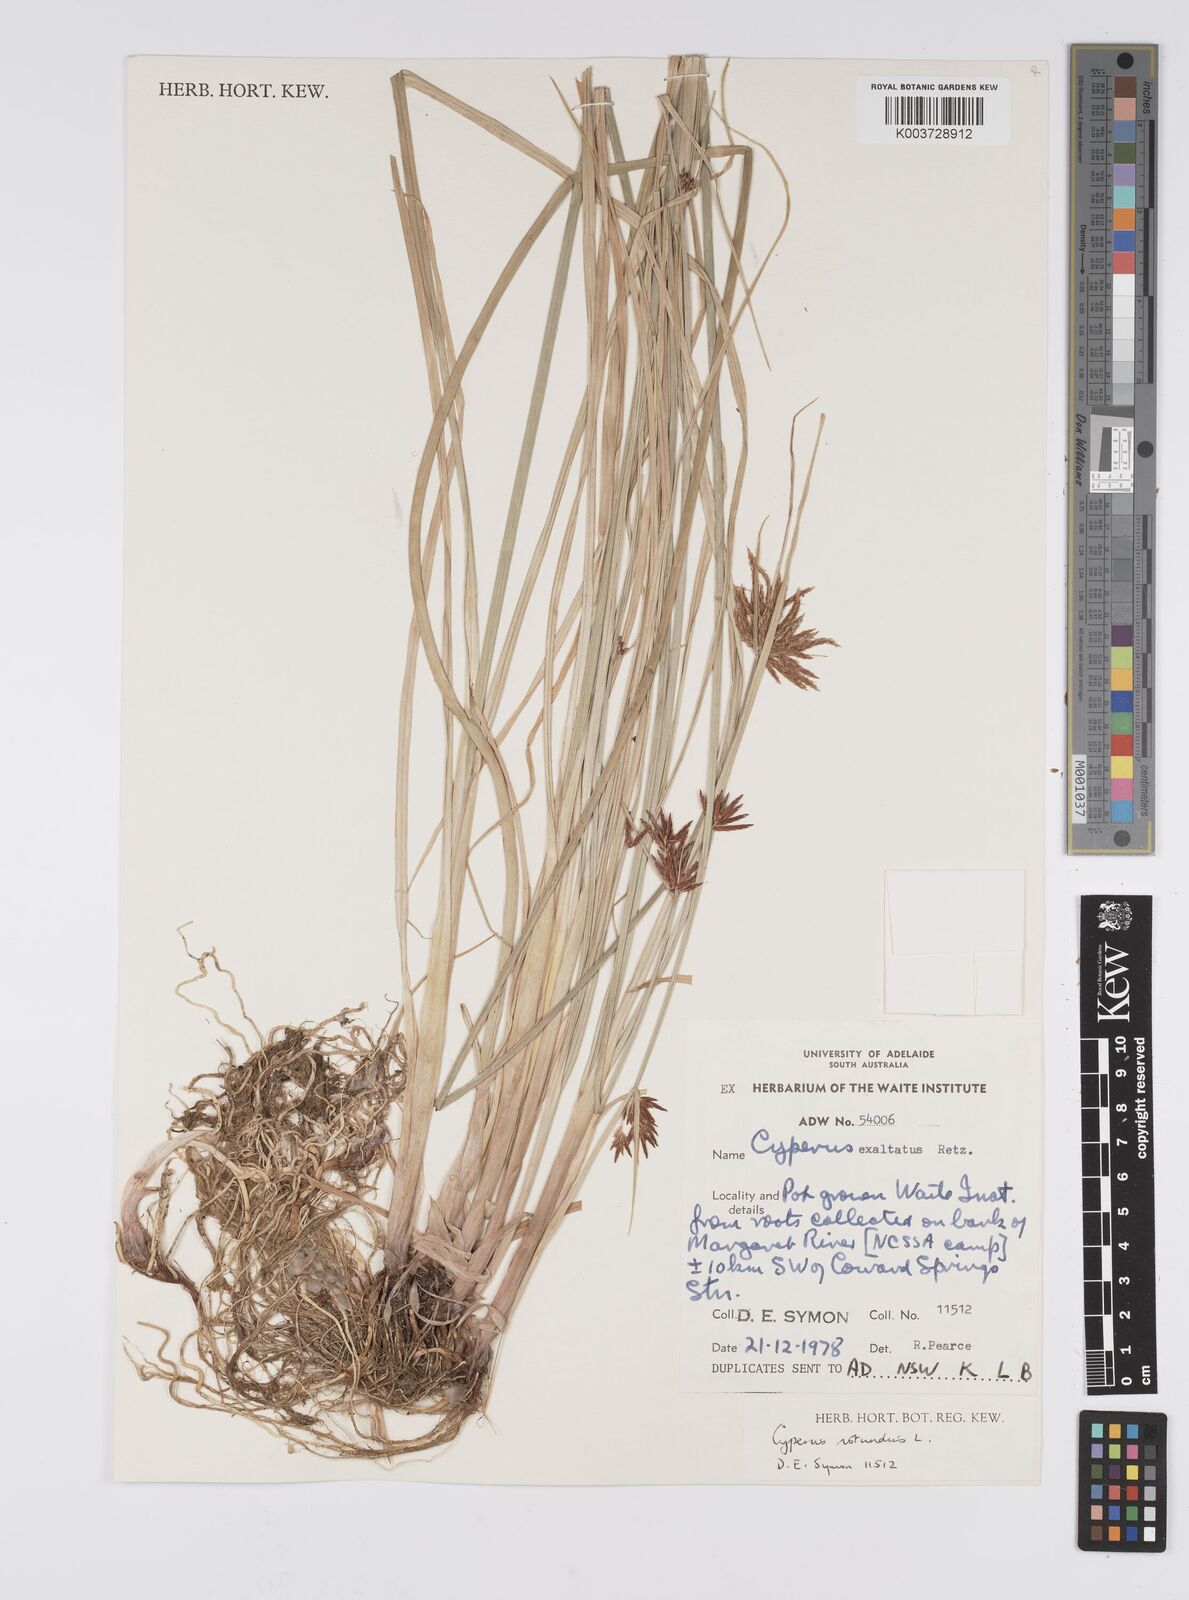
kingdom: Plantae
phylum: Tracheophyta
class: Liliopsida
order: Poales
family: Cyperaceae
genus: Cyperus
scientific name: Cyperus rotundus
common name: Nutgrass
